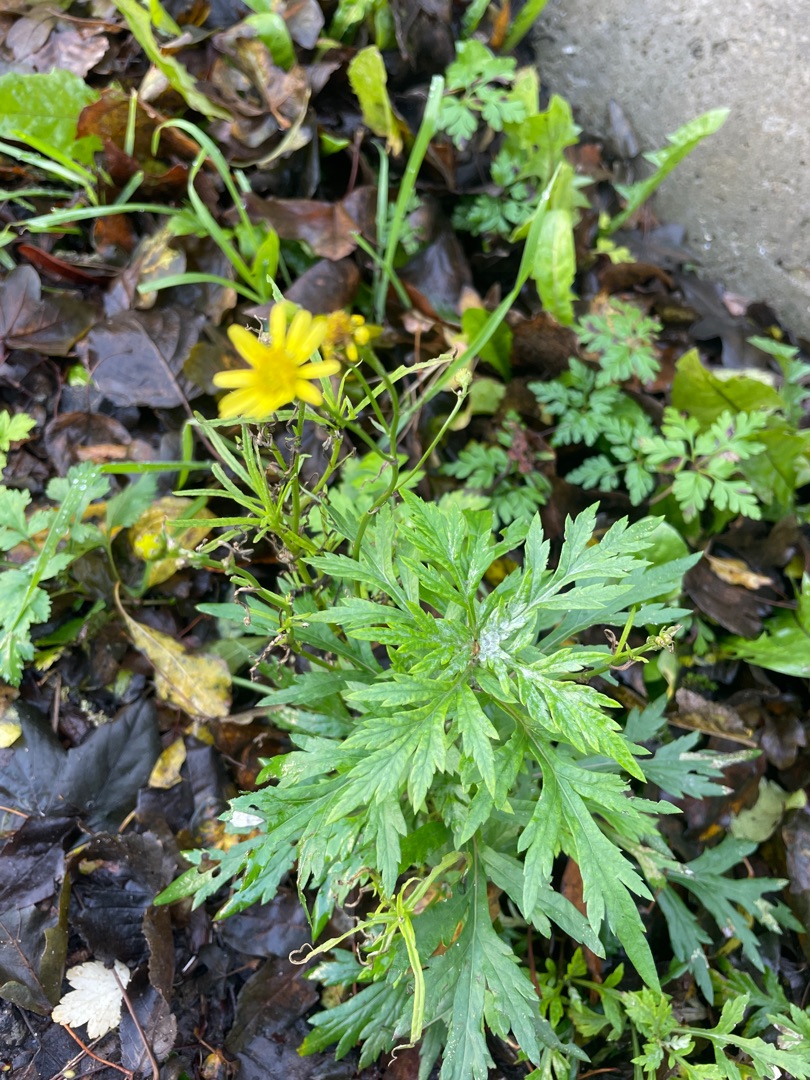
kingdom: Plantae
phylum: Tracheophyta
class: Magnoliopsida
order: Asterales
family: Asteraceae
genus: Senecio
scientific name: Senecio inaequidens
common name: Smalbladet brandbæger
